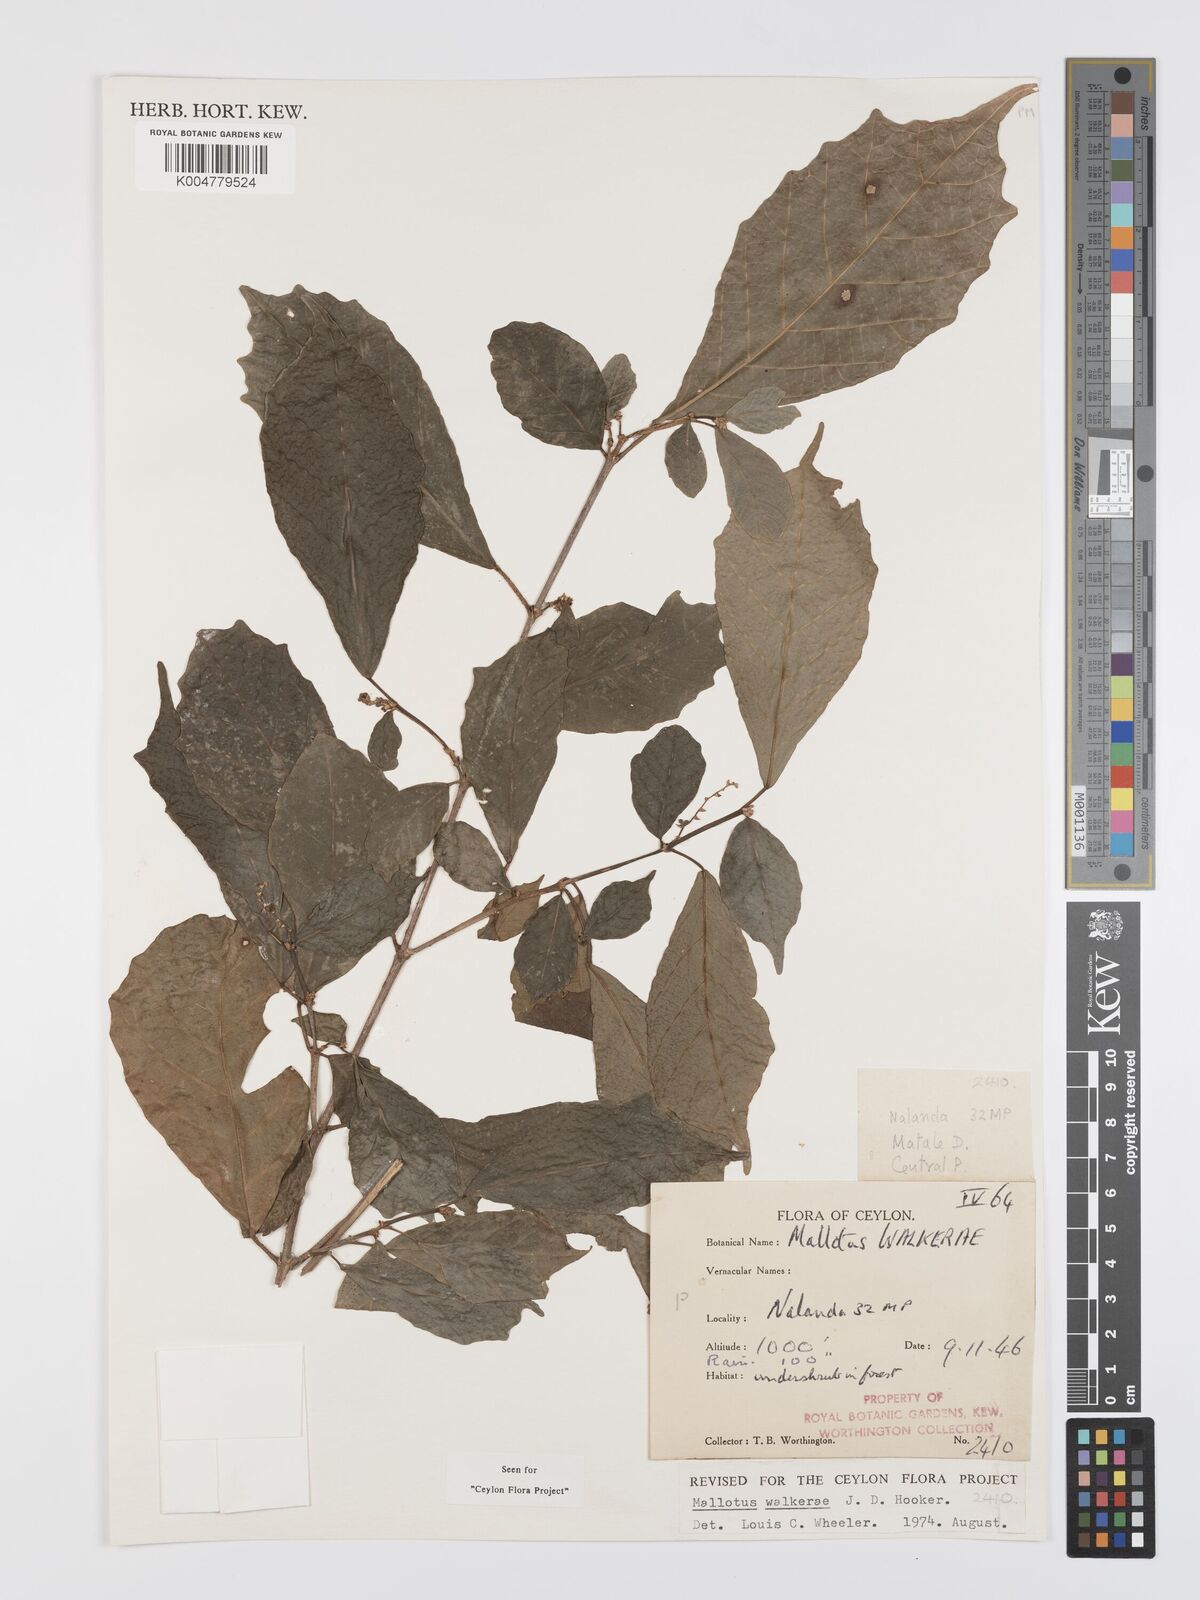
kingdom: Plantae
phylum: Tracheophyta
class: Magnoliopsida
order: Malpighiales
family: Euphorbiaceae
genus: Mallotus
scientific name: Mallotus resinosus
